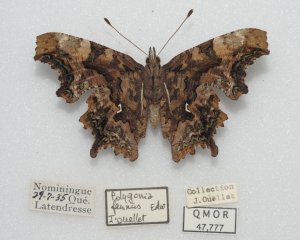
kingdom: Animalia
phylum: Arthropoda
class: Insecta
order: Lepidoptera
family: Nymphalidae
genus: Polygonia
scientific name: Polygonia faunus
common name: Green Comma
